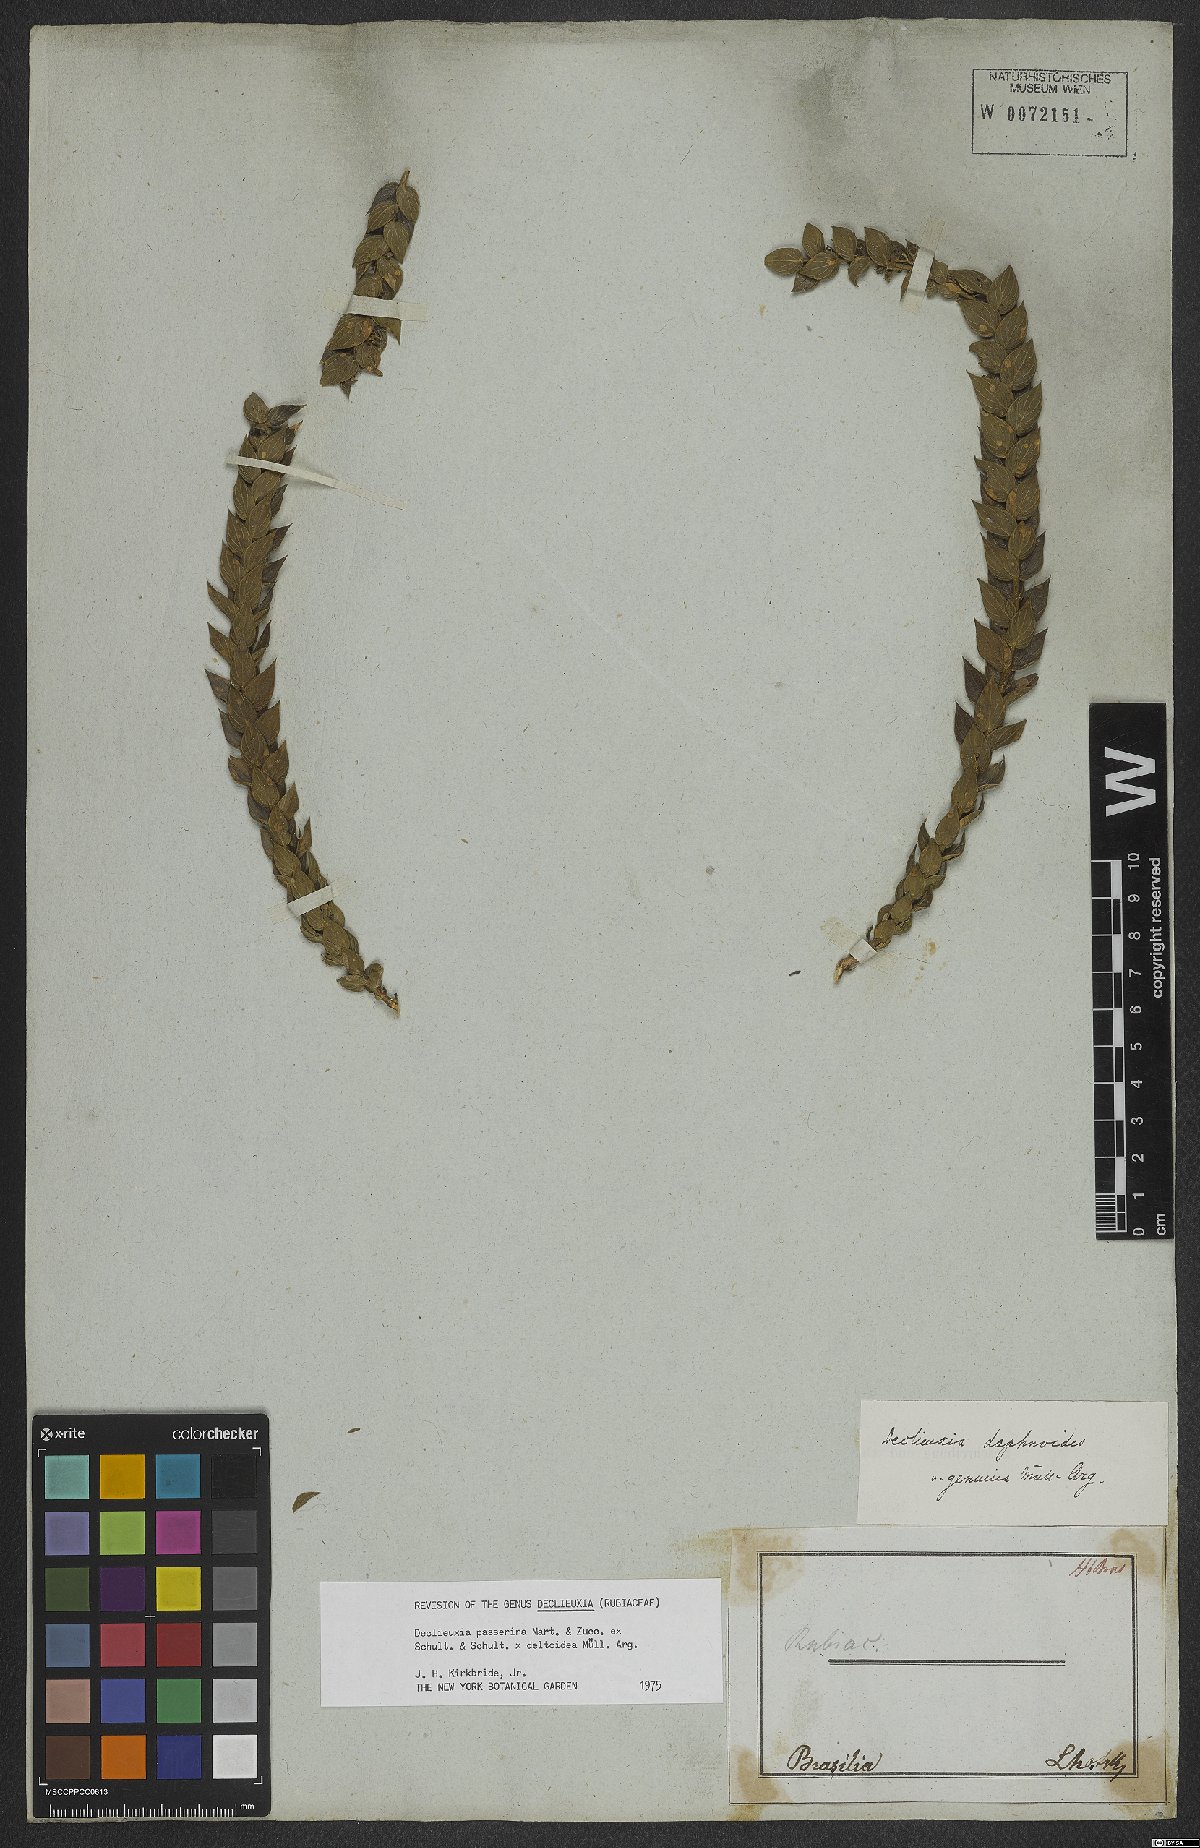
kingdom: Plantae
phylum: Tracheophyta
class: Magnoliopsida
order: Gentianales
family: Rubiaceae
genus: Declieuxia
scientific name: Declieuxia deltoidea
